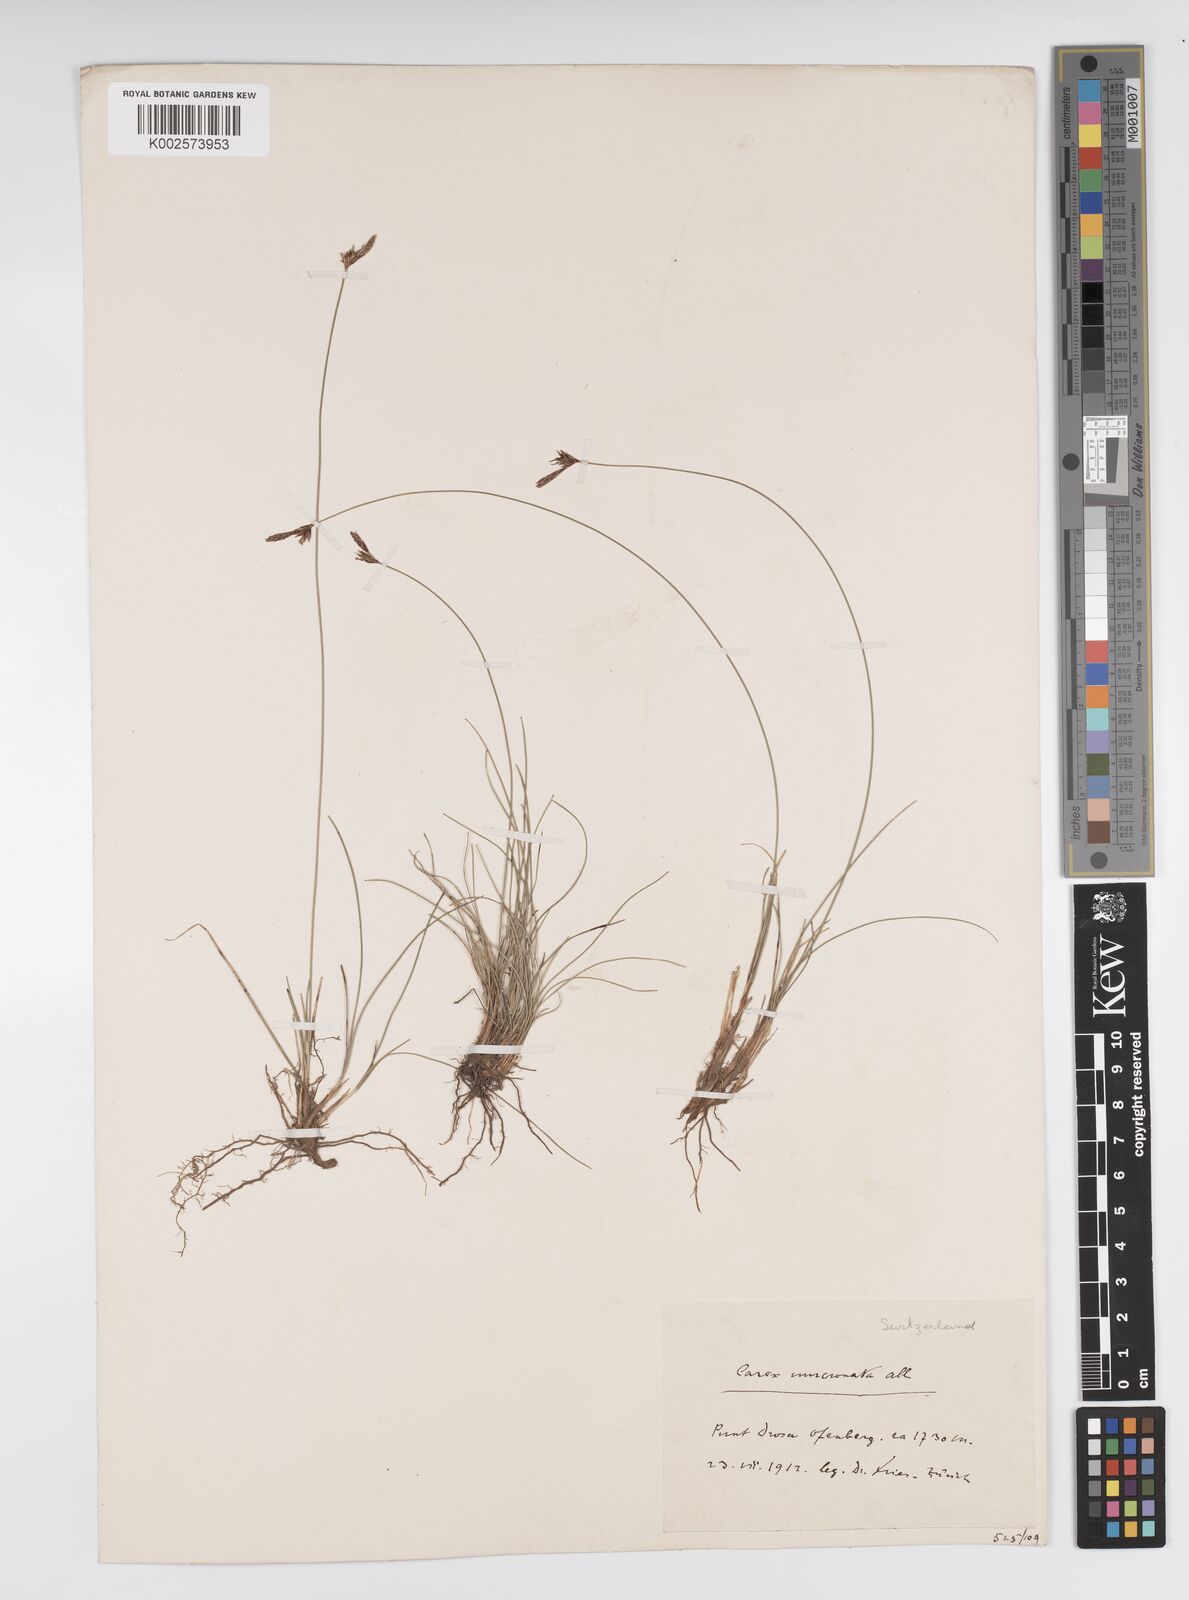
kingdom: Plantae
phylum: Tracheophyta
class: Liliopsida
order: Poales
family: Cyperaceae
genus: Carex
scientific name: Carex mucronata
